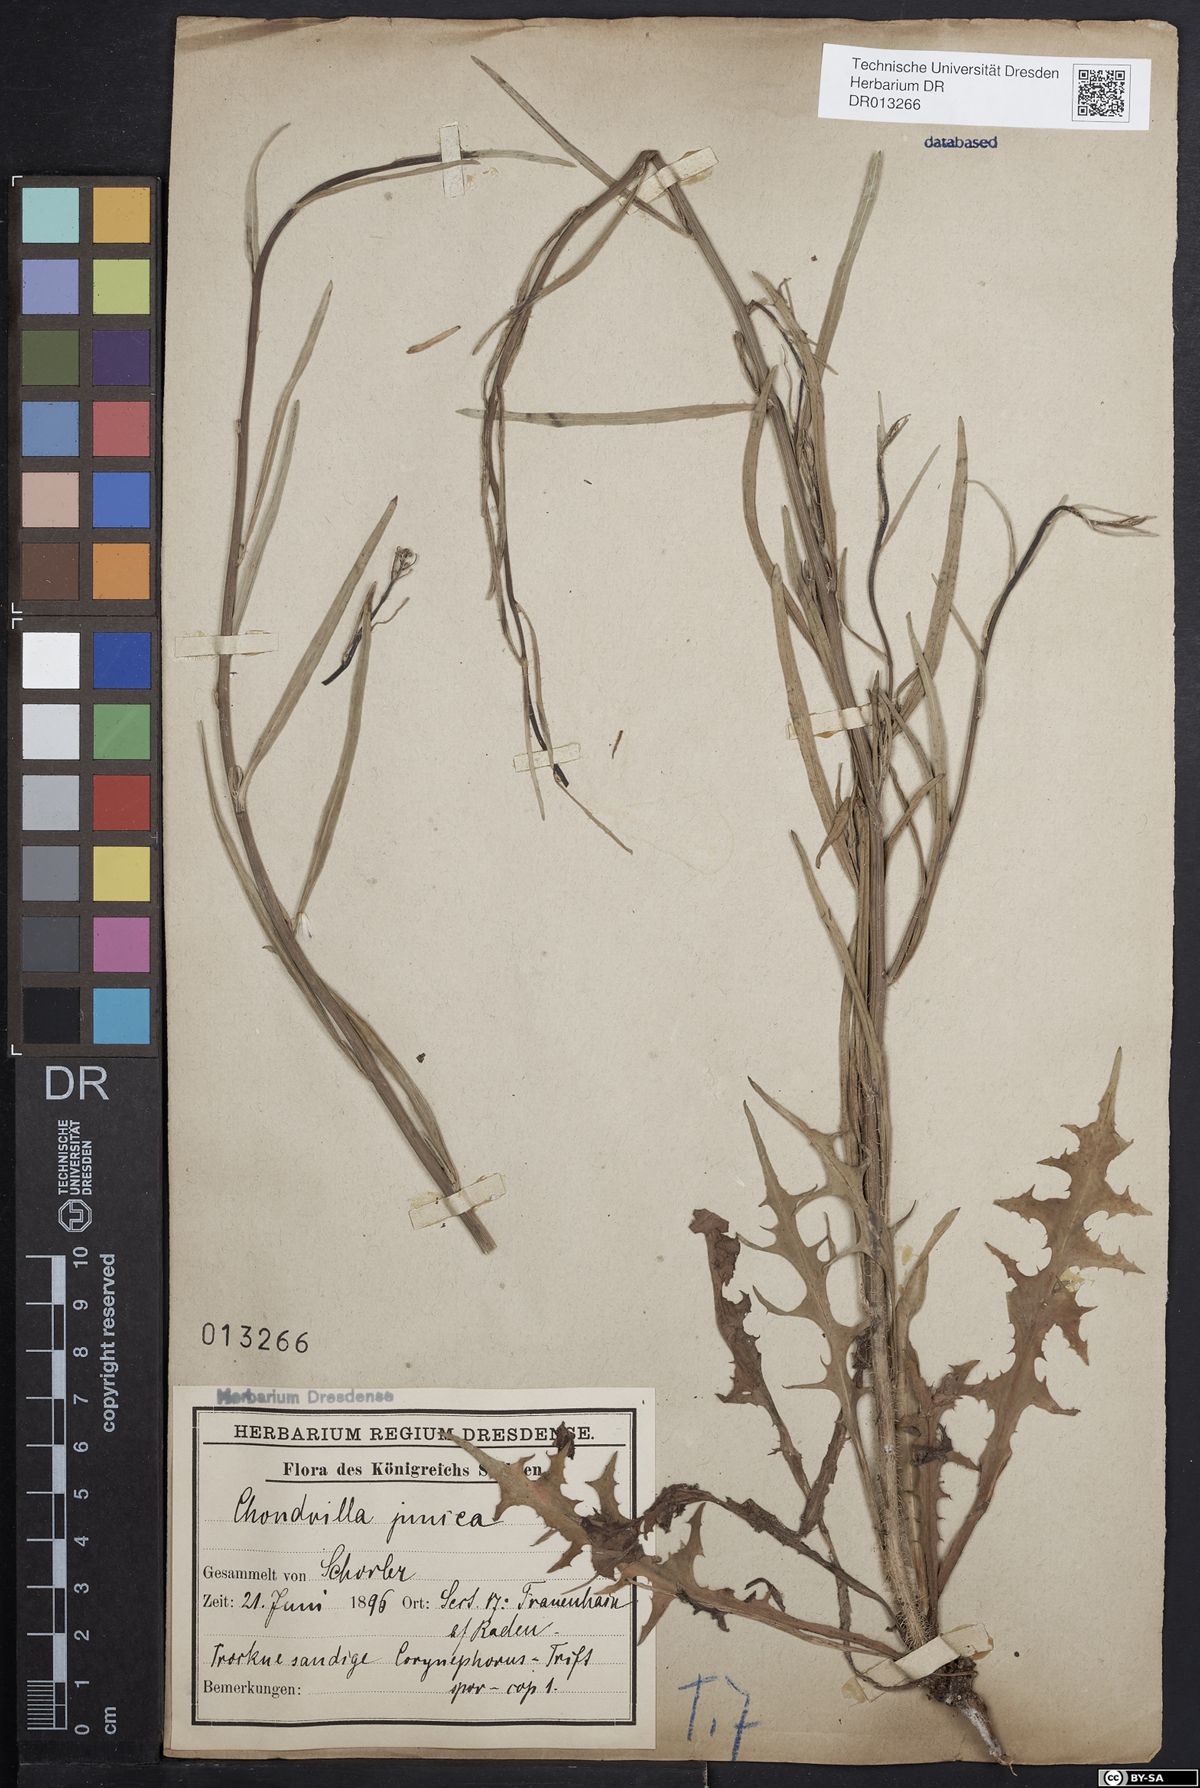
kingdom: Plantae
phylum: Tracheophyta
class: Magnoliopsida
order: Asterales
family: Asteraceae
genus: Chondrilla
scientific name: Chondrilla juncea
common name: Skeleton weed
